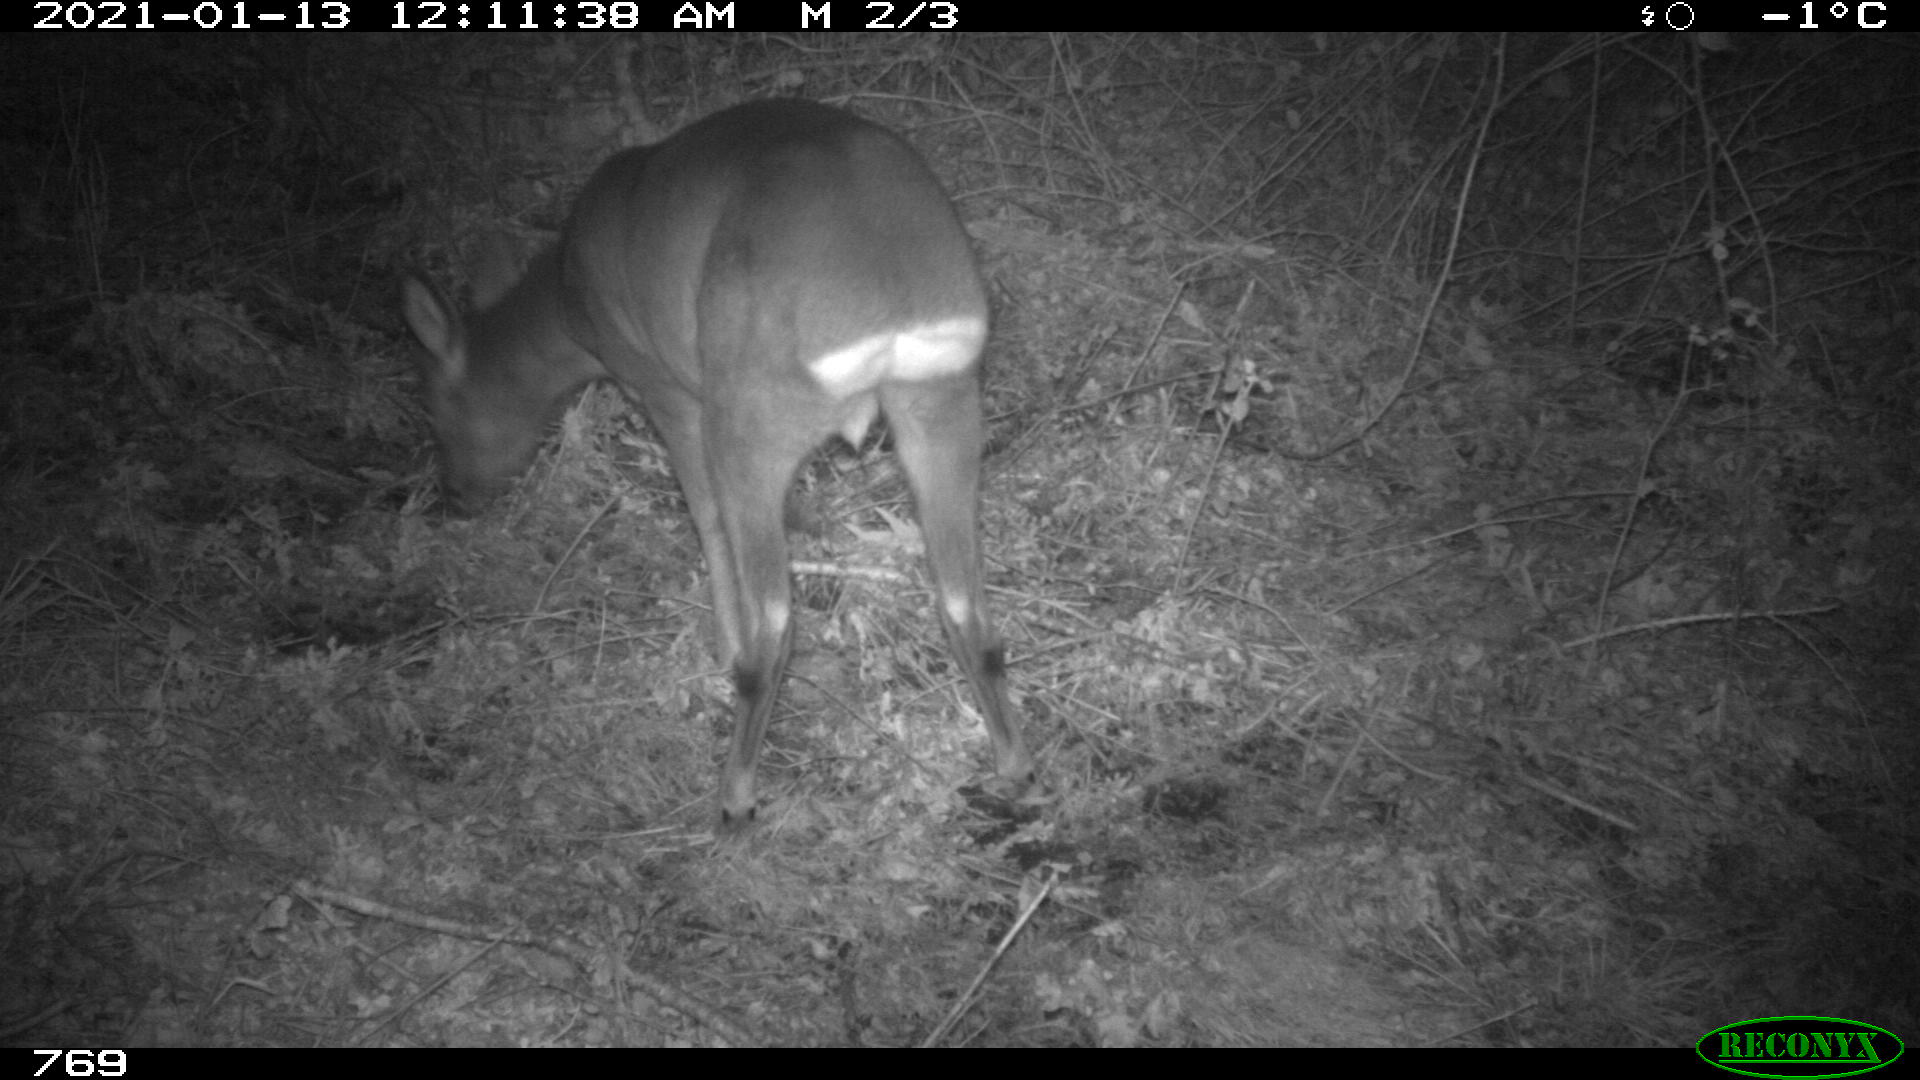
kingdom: Animalia
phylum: Chordata
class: Mammalia
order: Artiodactyla
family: Cervidae
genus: Capreolus
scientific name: Capreolus capreolus
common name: Western roe deer
